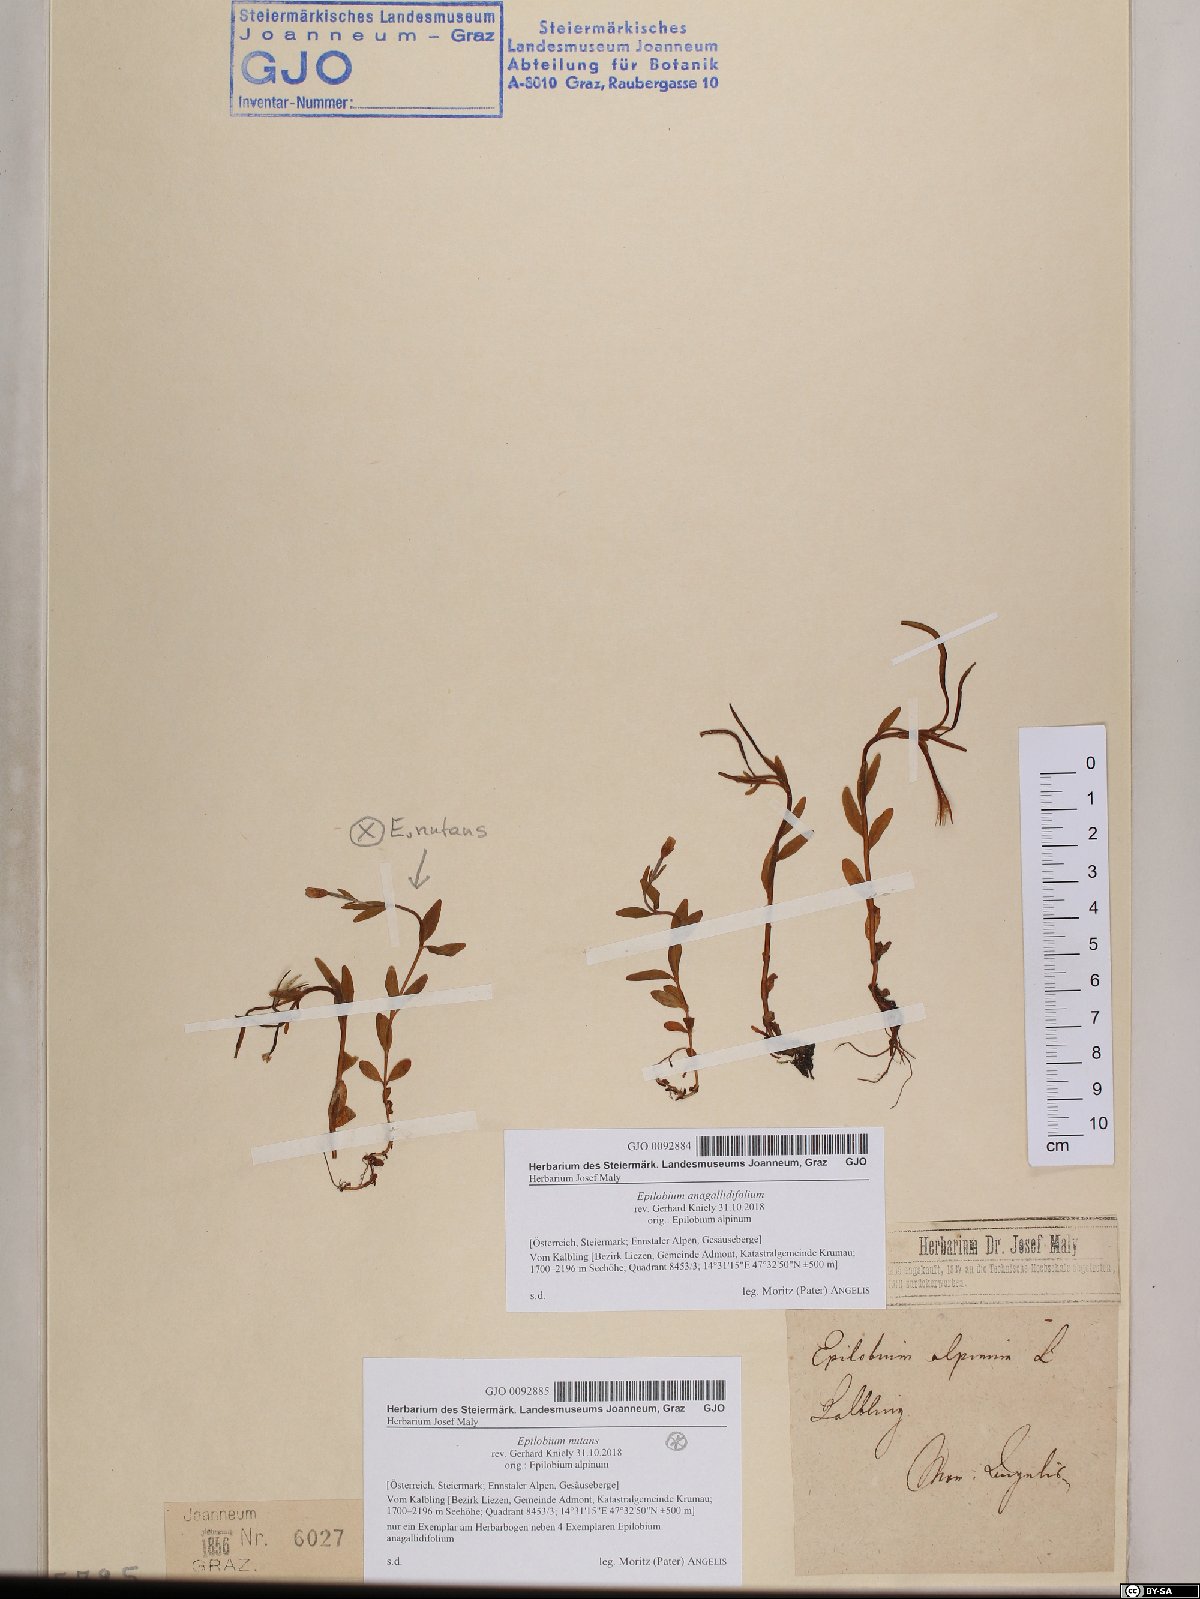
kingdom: Plantae
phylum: Tracheophyta
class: Magnoliopsida
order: Myrtales
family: Onagraceae
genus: Epilobium
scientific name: Epilobium anagallidifolium
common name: Alpine willowherb
